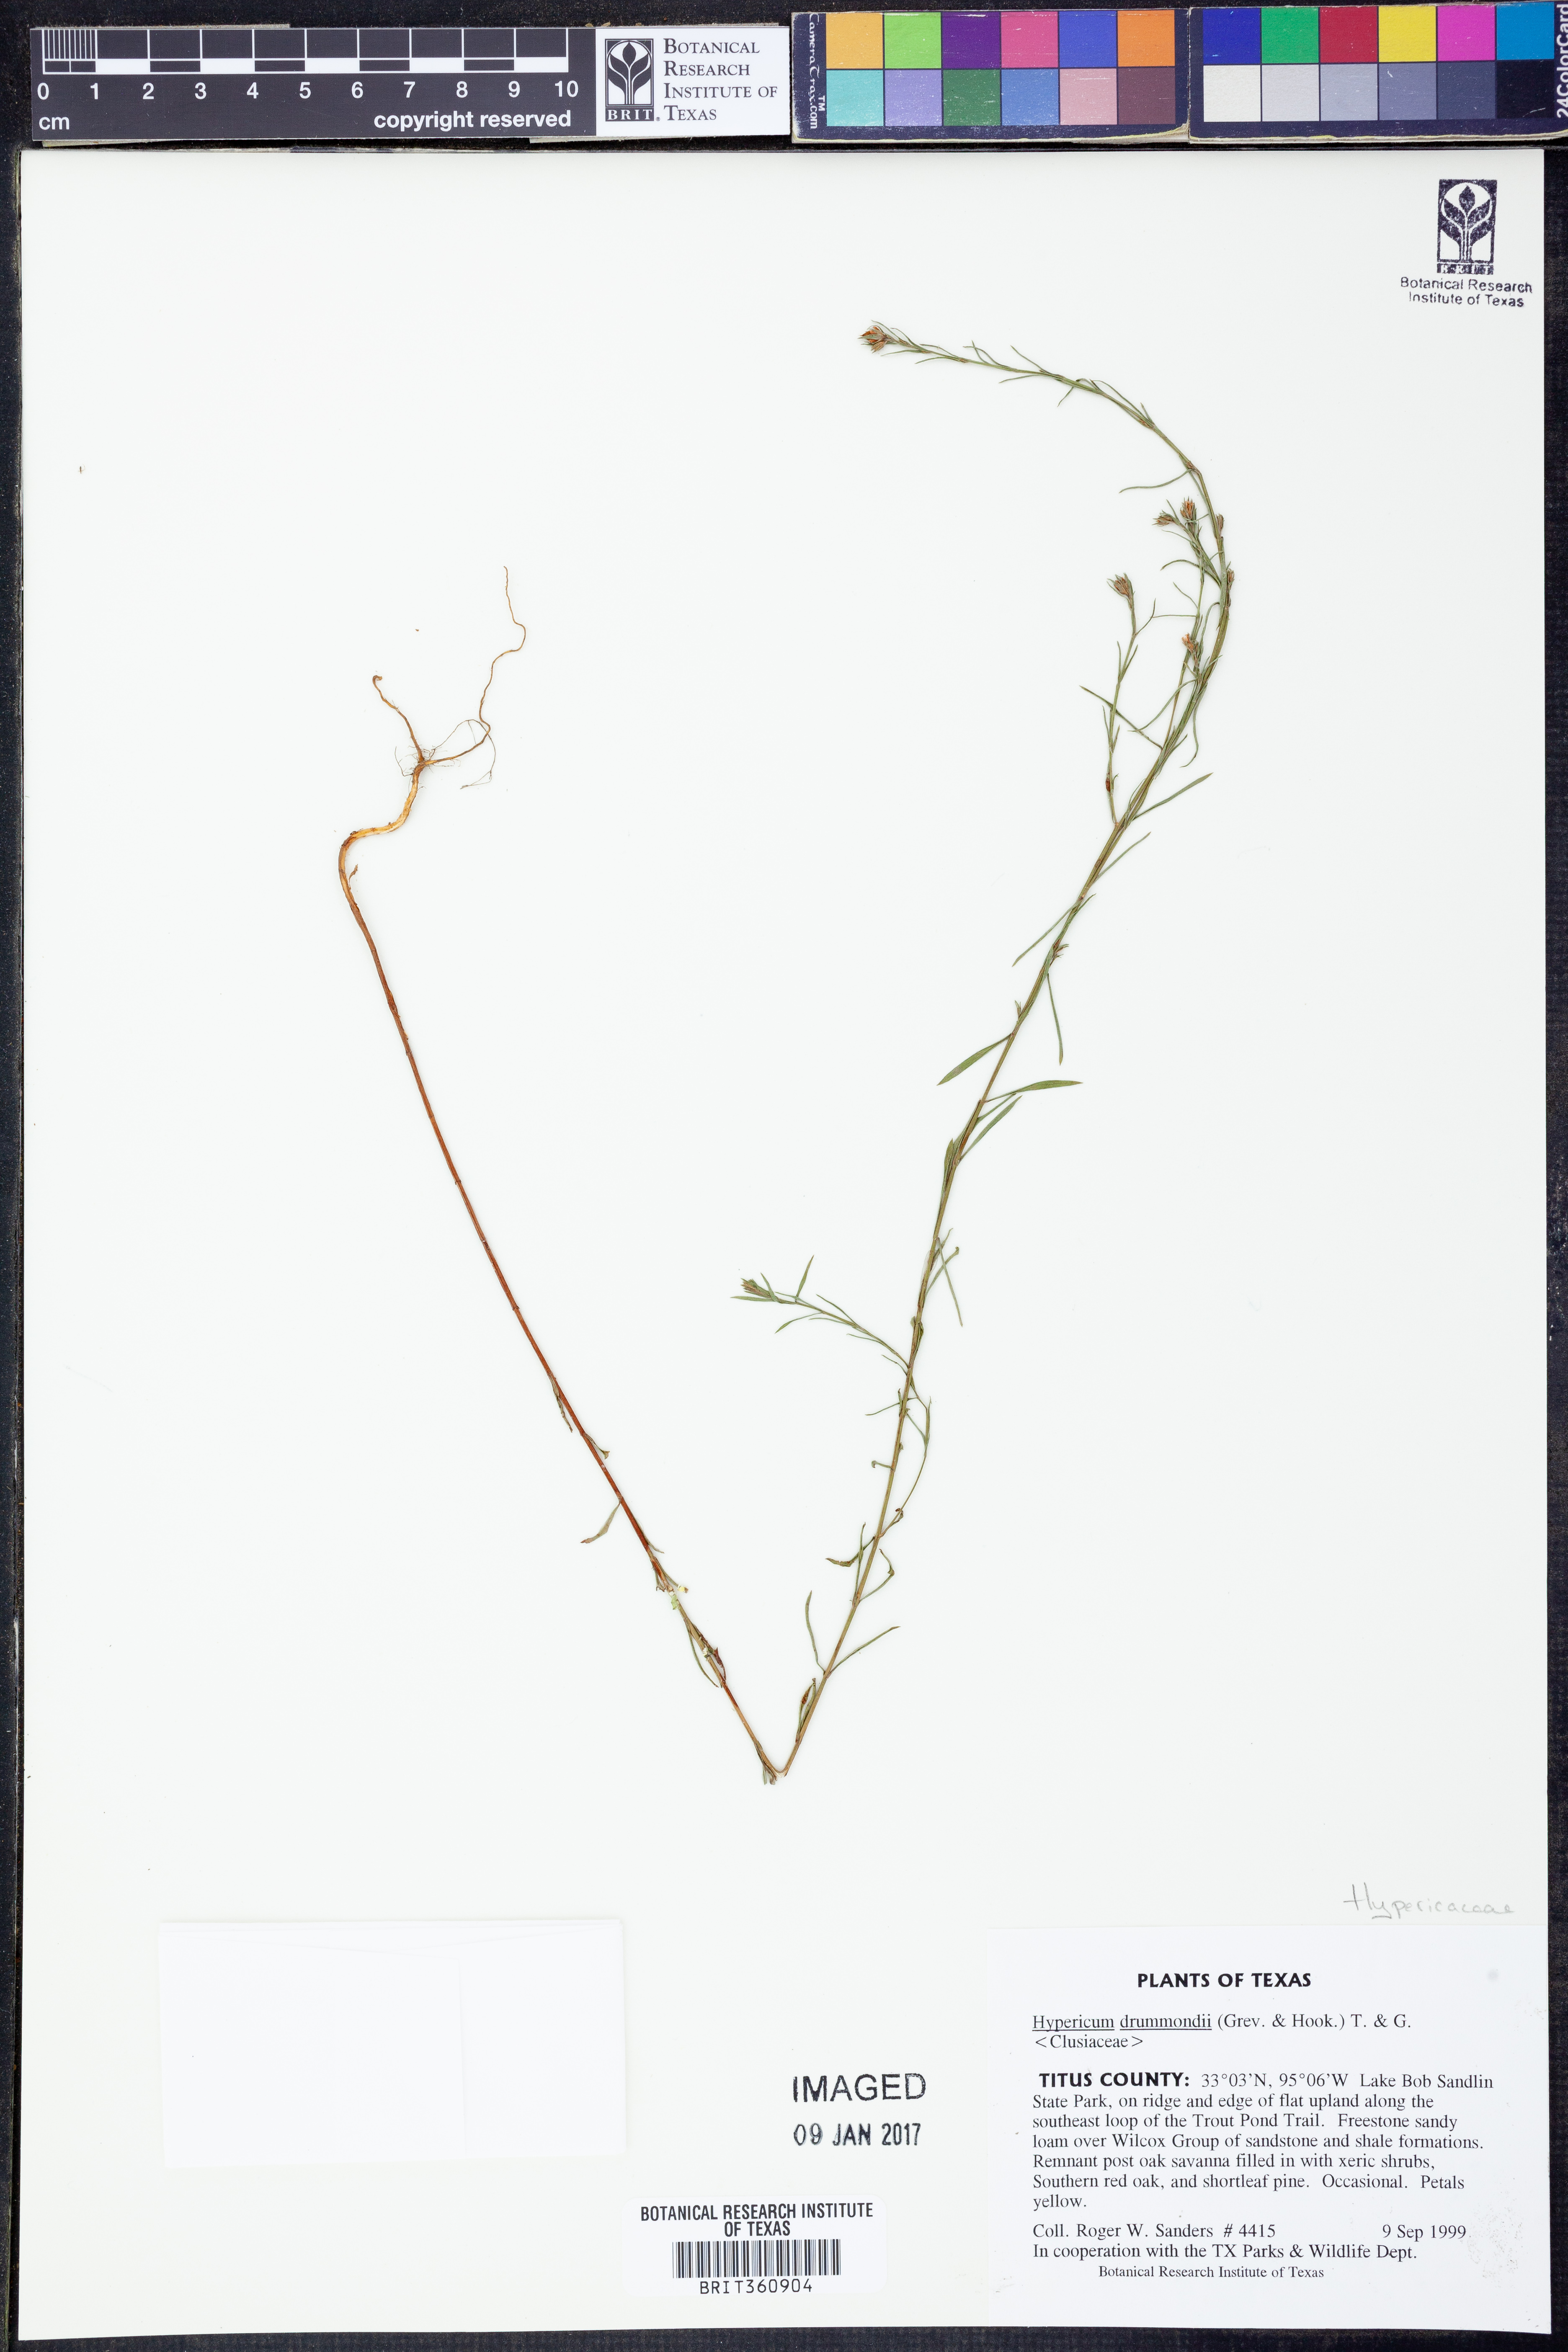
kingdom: Plantae
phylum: Tracheophyta
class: Magnoliopsida
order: Malpighiales
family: Hypericaceae
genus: Hypericum
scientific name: Hypericum drummondii
